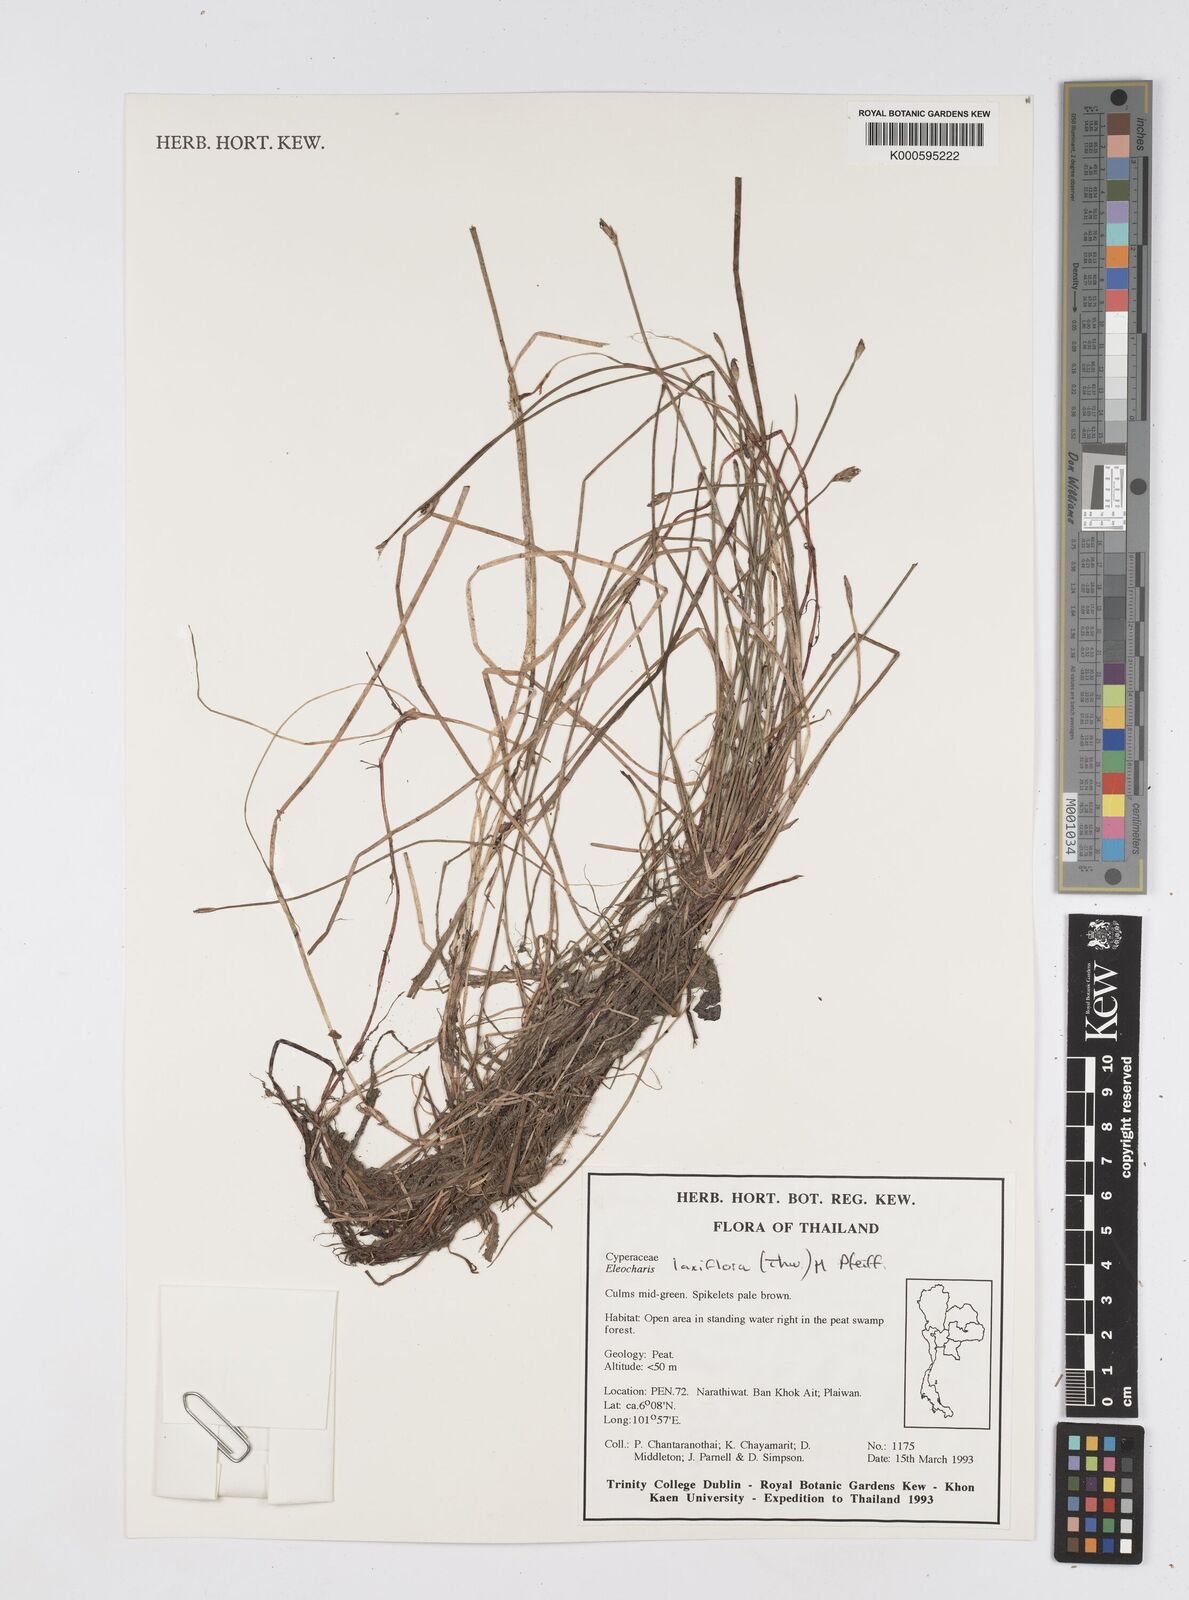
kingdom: Plantae
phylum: Tracheophyta
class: Liliopsida
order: Poales
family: Cyperaceae
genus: Eleocharis
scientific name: Eleocharis ochrostachys
